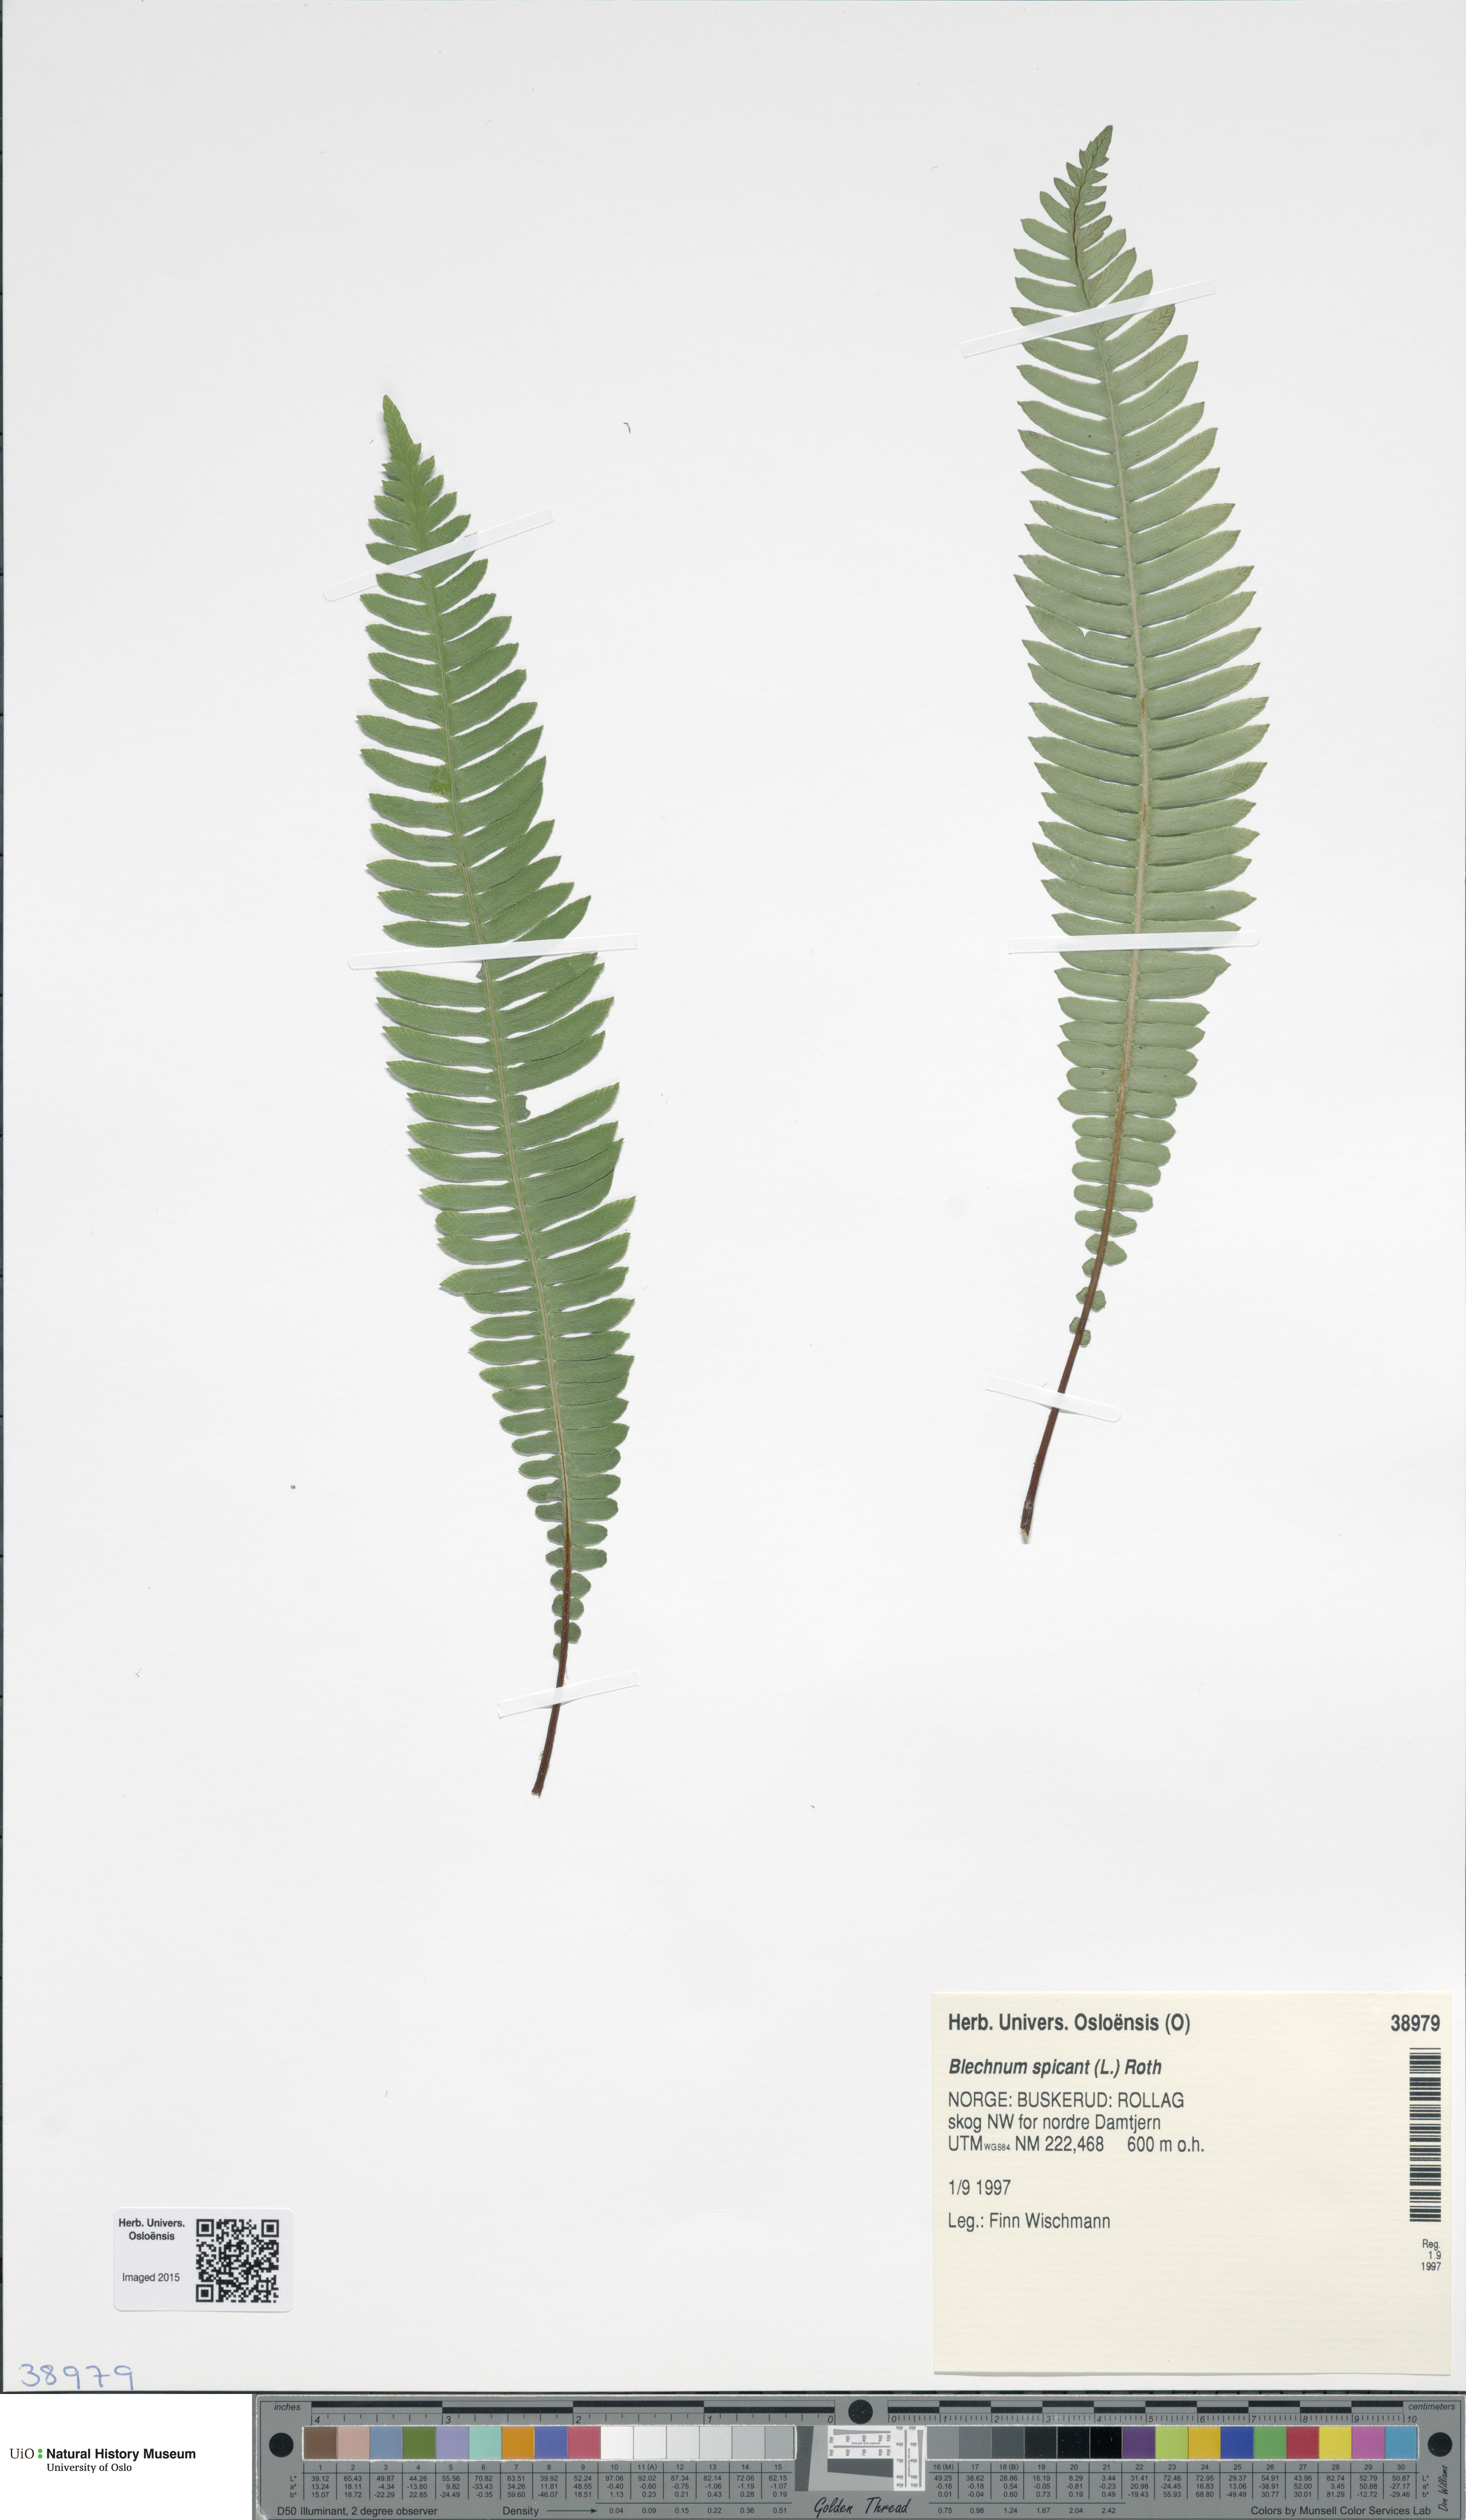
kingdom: Plantae
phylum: Tracheophyta
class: Polypodiopsida
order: Polypodiales
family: Blechnaceae
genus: Struthiopteris
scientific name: Struthiopteris spicant
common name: Deer fern
